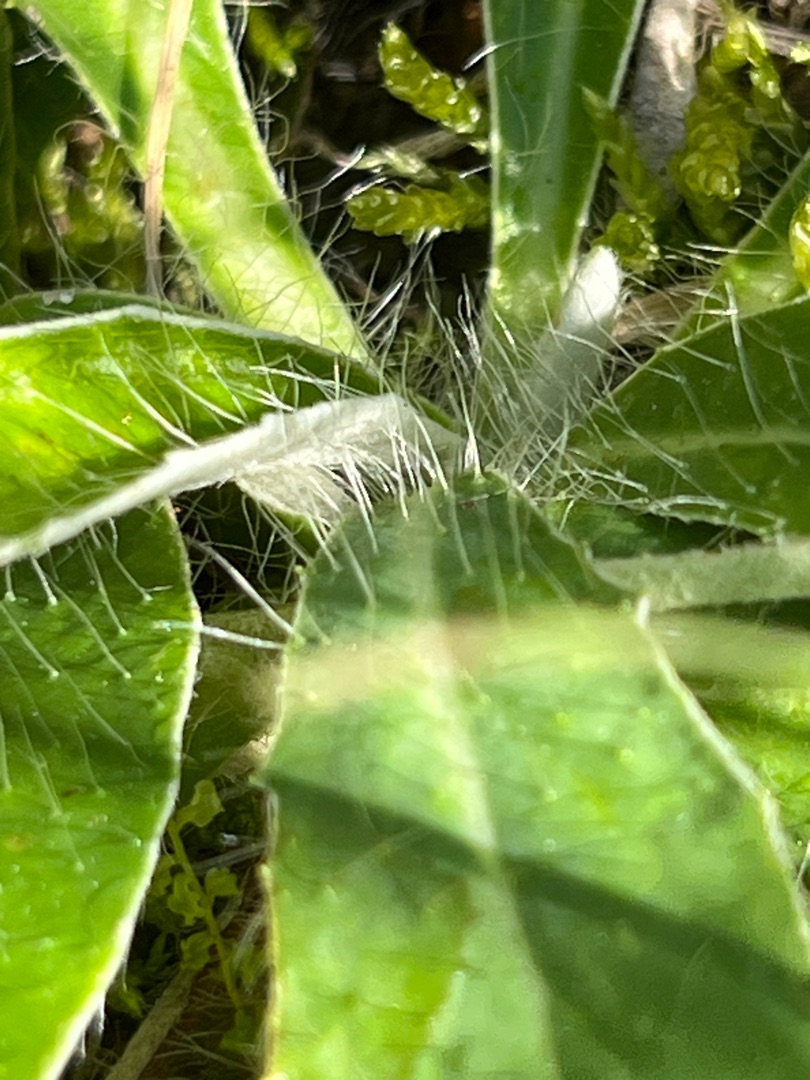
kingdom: Plantae
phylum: Tracheophyta
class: Magnoliopsida
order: Asterales
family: Asteraceae
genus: Pilosella
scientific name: Pilosella officinarum
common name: Håret høgeurt
